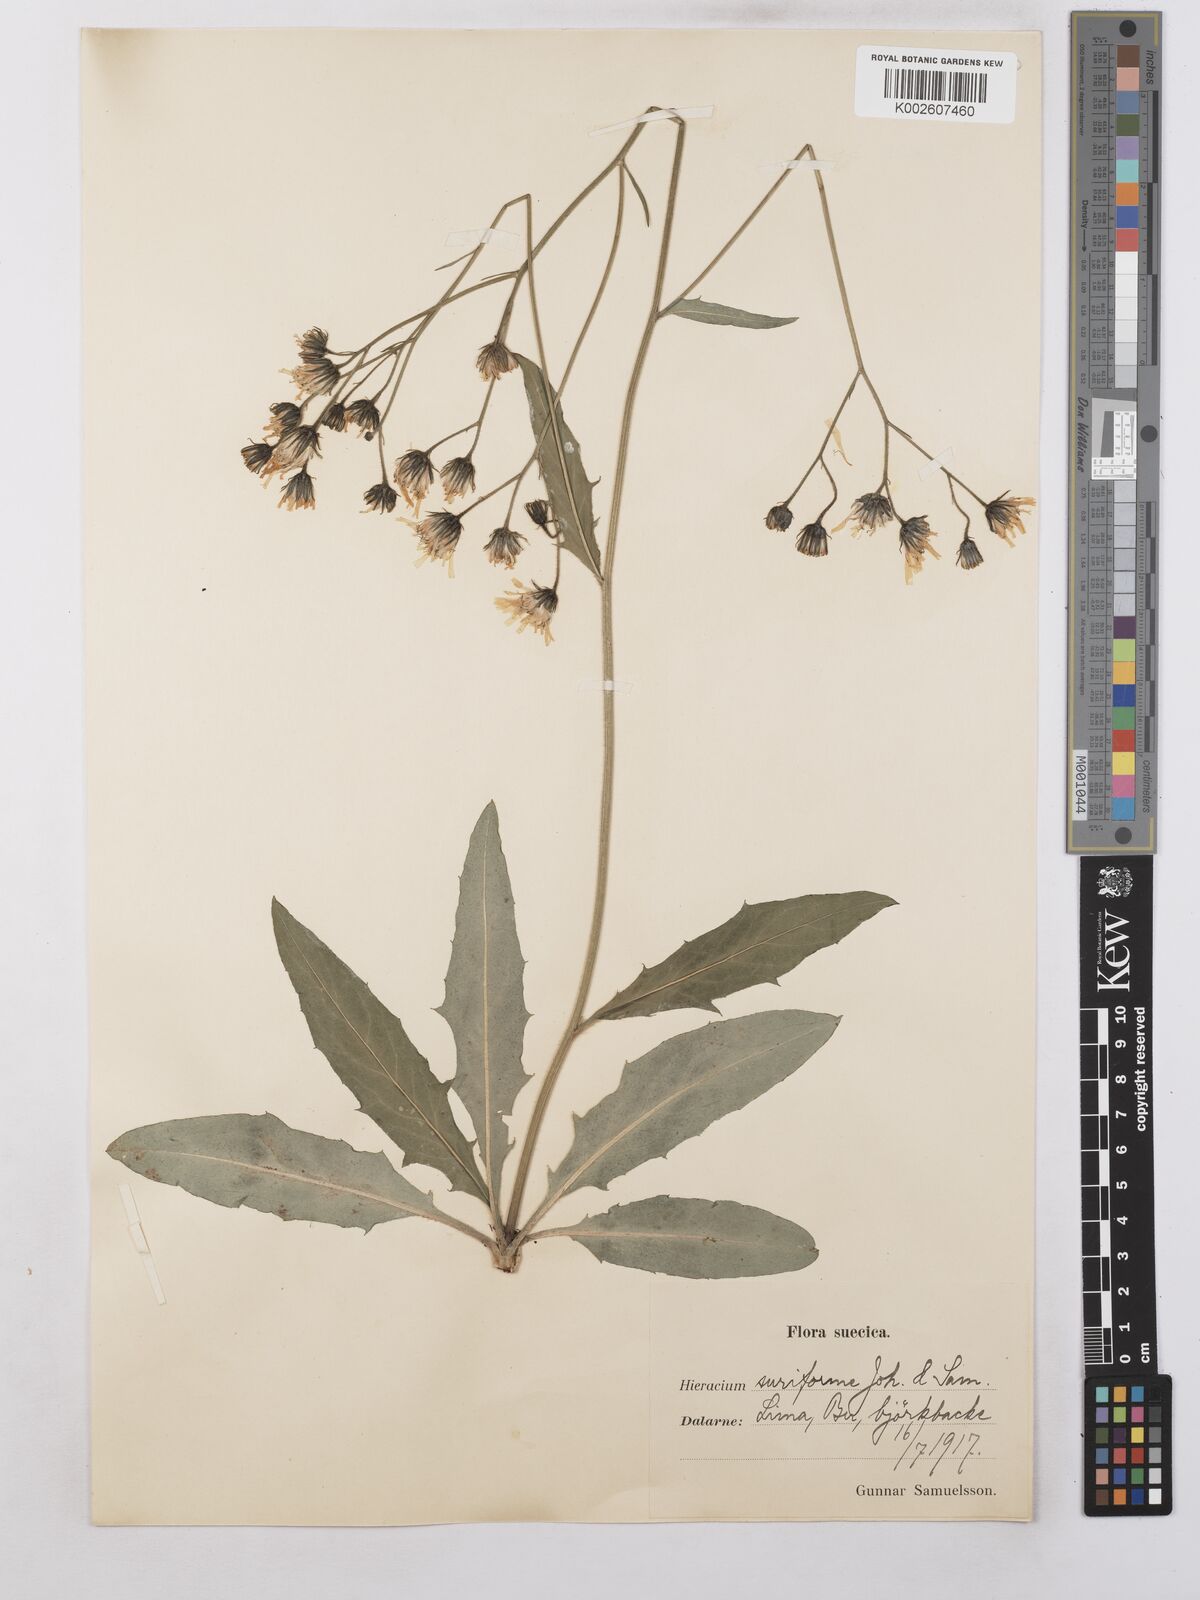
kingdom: Plantae
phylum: Tracheophyta
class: Magnoliopsida
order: Asterales
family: Asteraceae
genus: Hieracium
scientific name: Hieracium caesium
